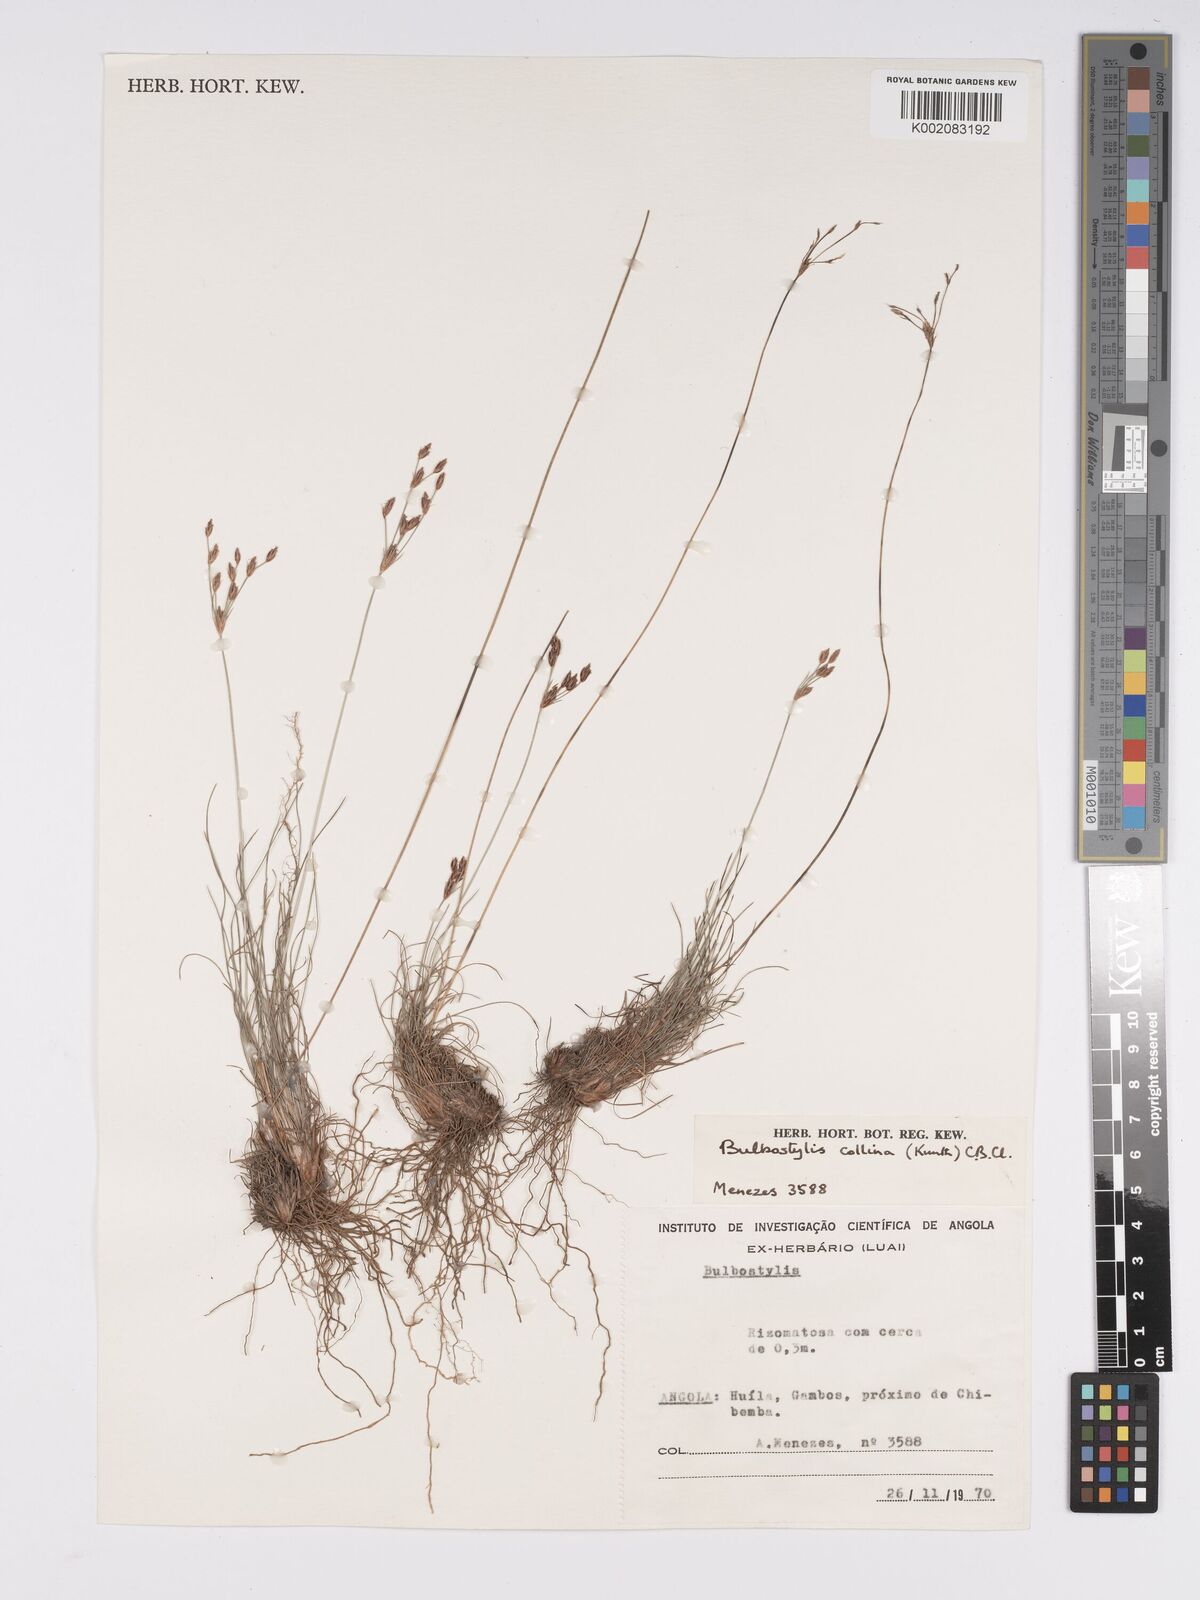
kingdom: Plantae
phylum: Tracheophyta
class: Liliopsida
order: Poales
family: Cyperaceae
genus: Bulbostylis
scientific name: Bulbostylis contexta
